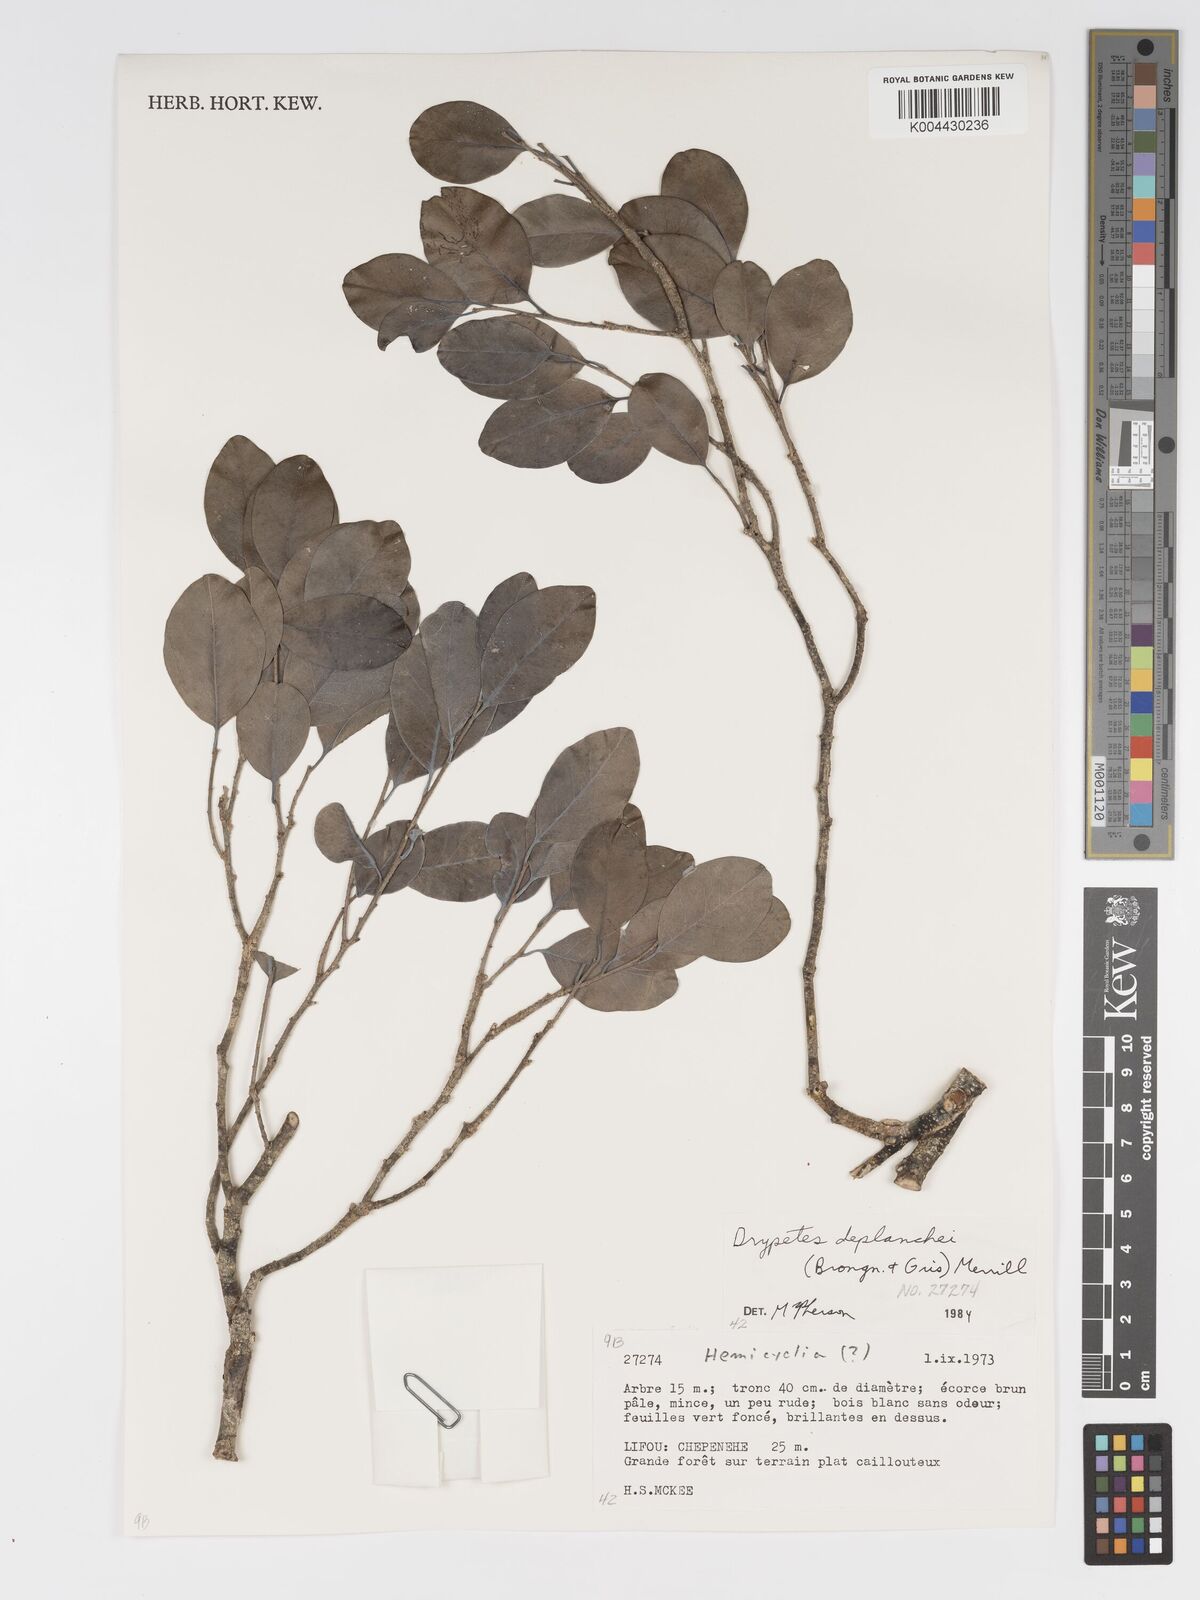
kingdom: Plantae
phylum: Tracheophyta
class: Magnoliopsida
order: Malpighiales
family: Putranjivaceae
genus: Drypetes
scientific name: Drypetes deplanchei
